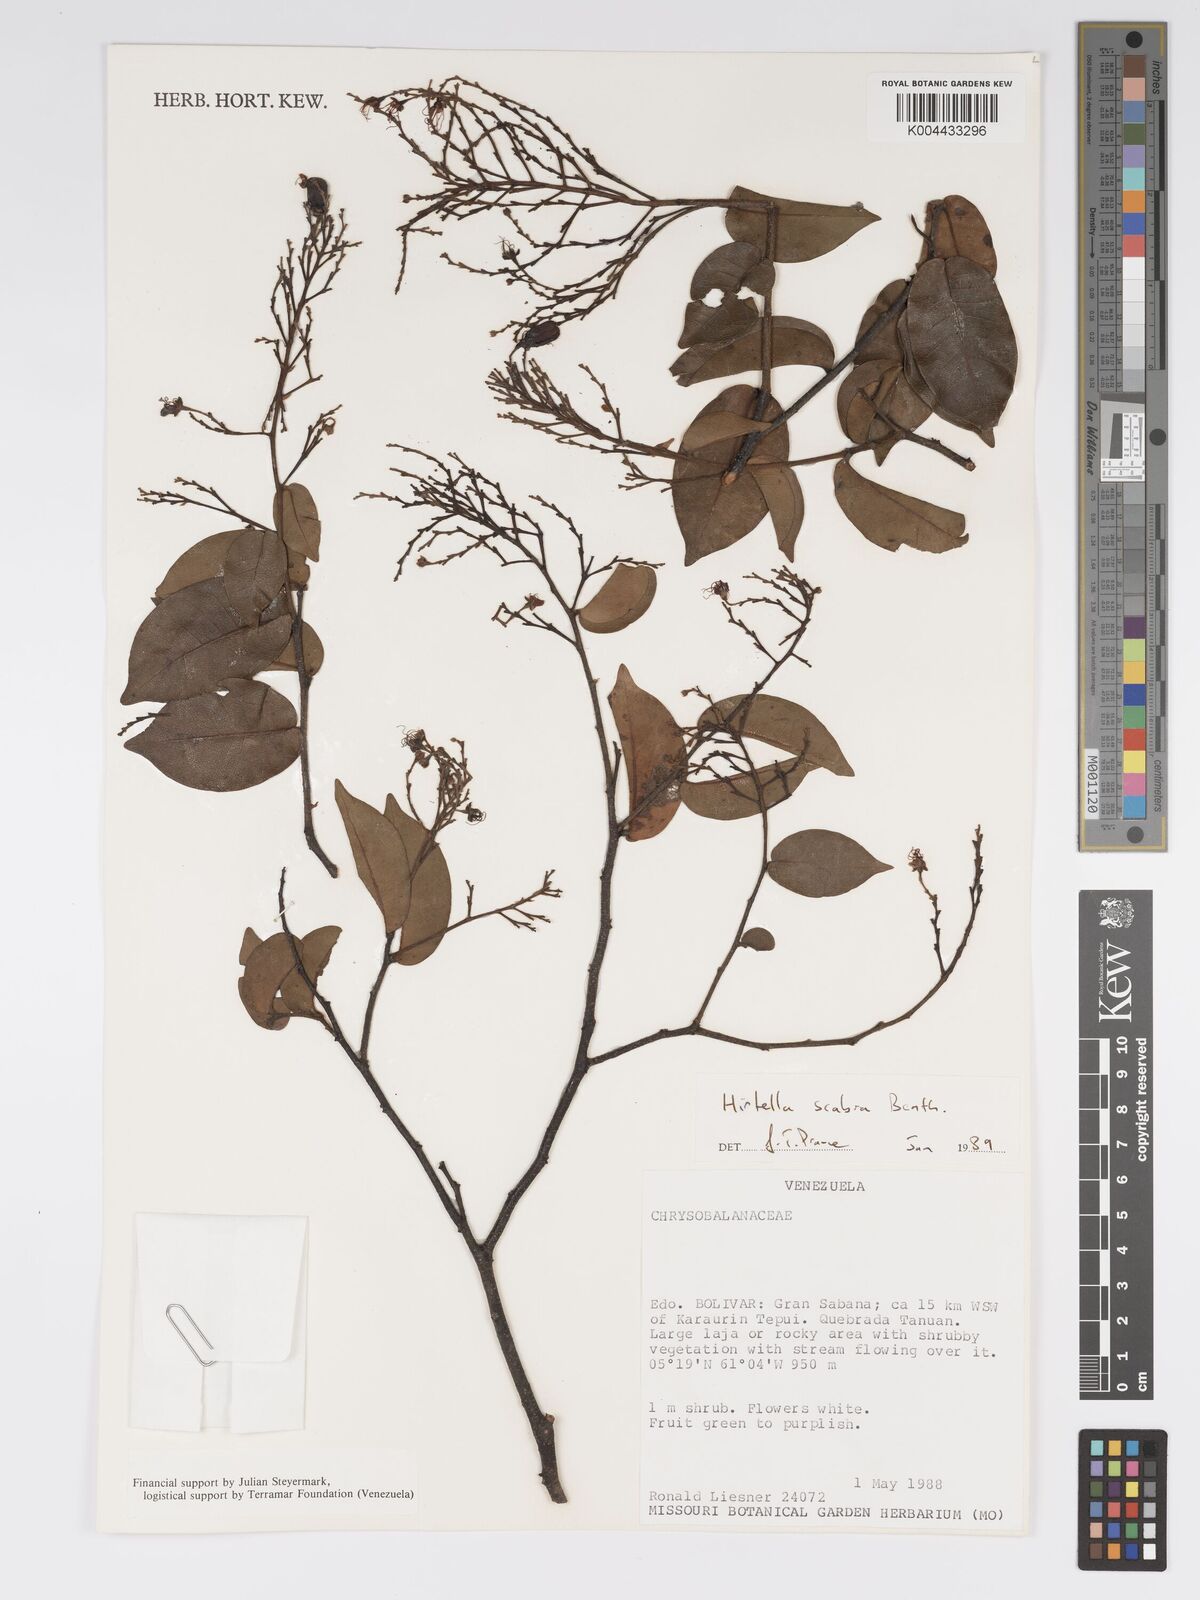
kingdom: Plantae
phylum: Tracheophyta
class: Magnoliopsida
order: Malpighiales
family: Chrysobalanaceae
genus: Hirtella
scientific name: Hirtella scabra
